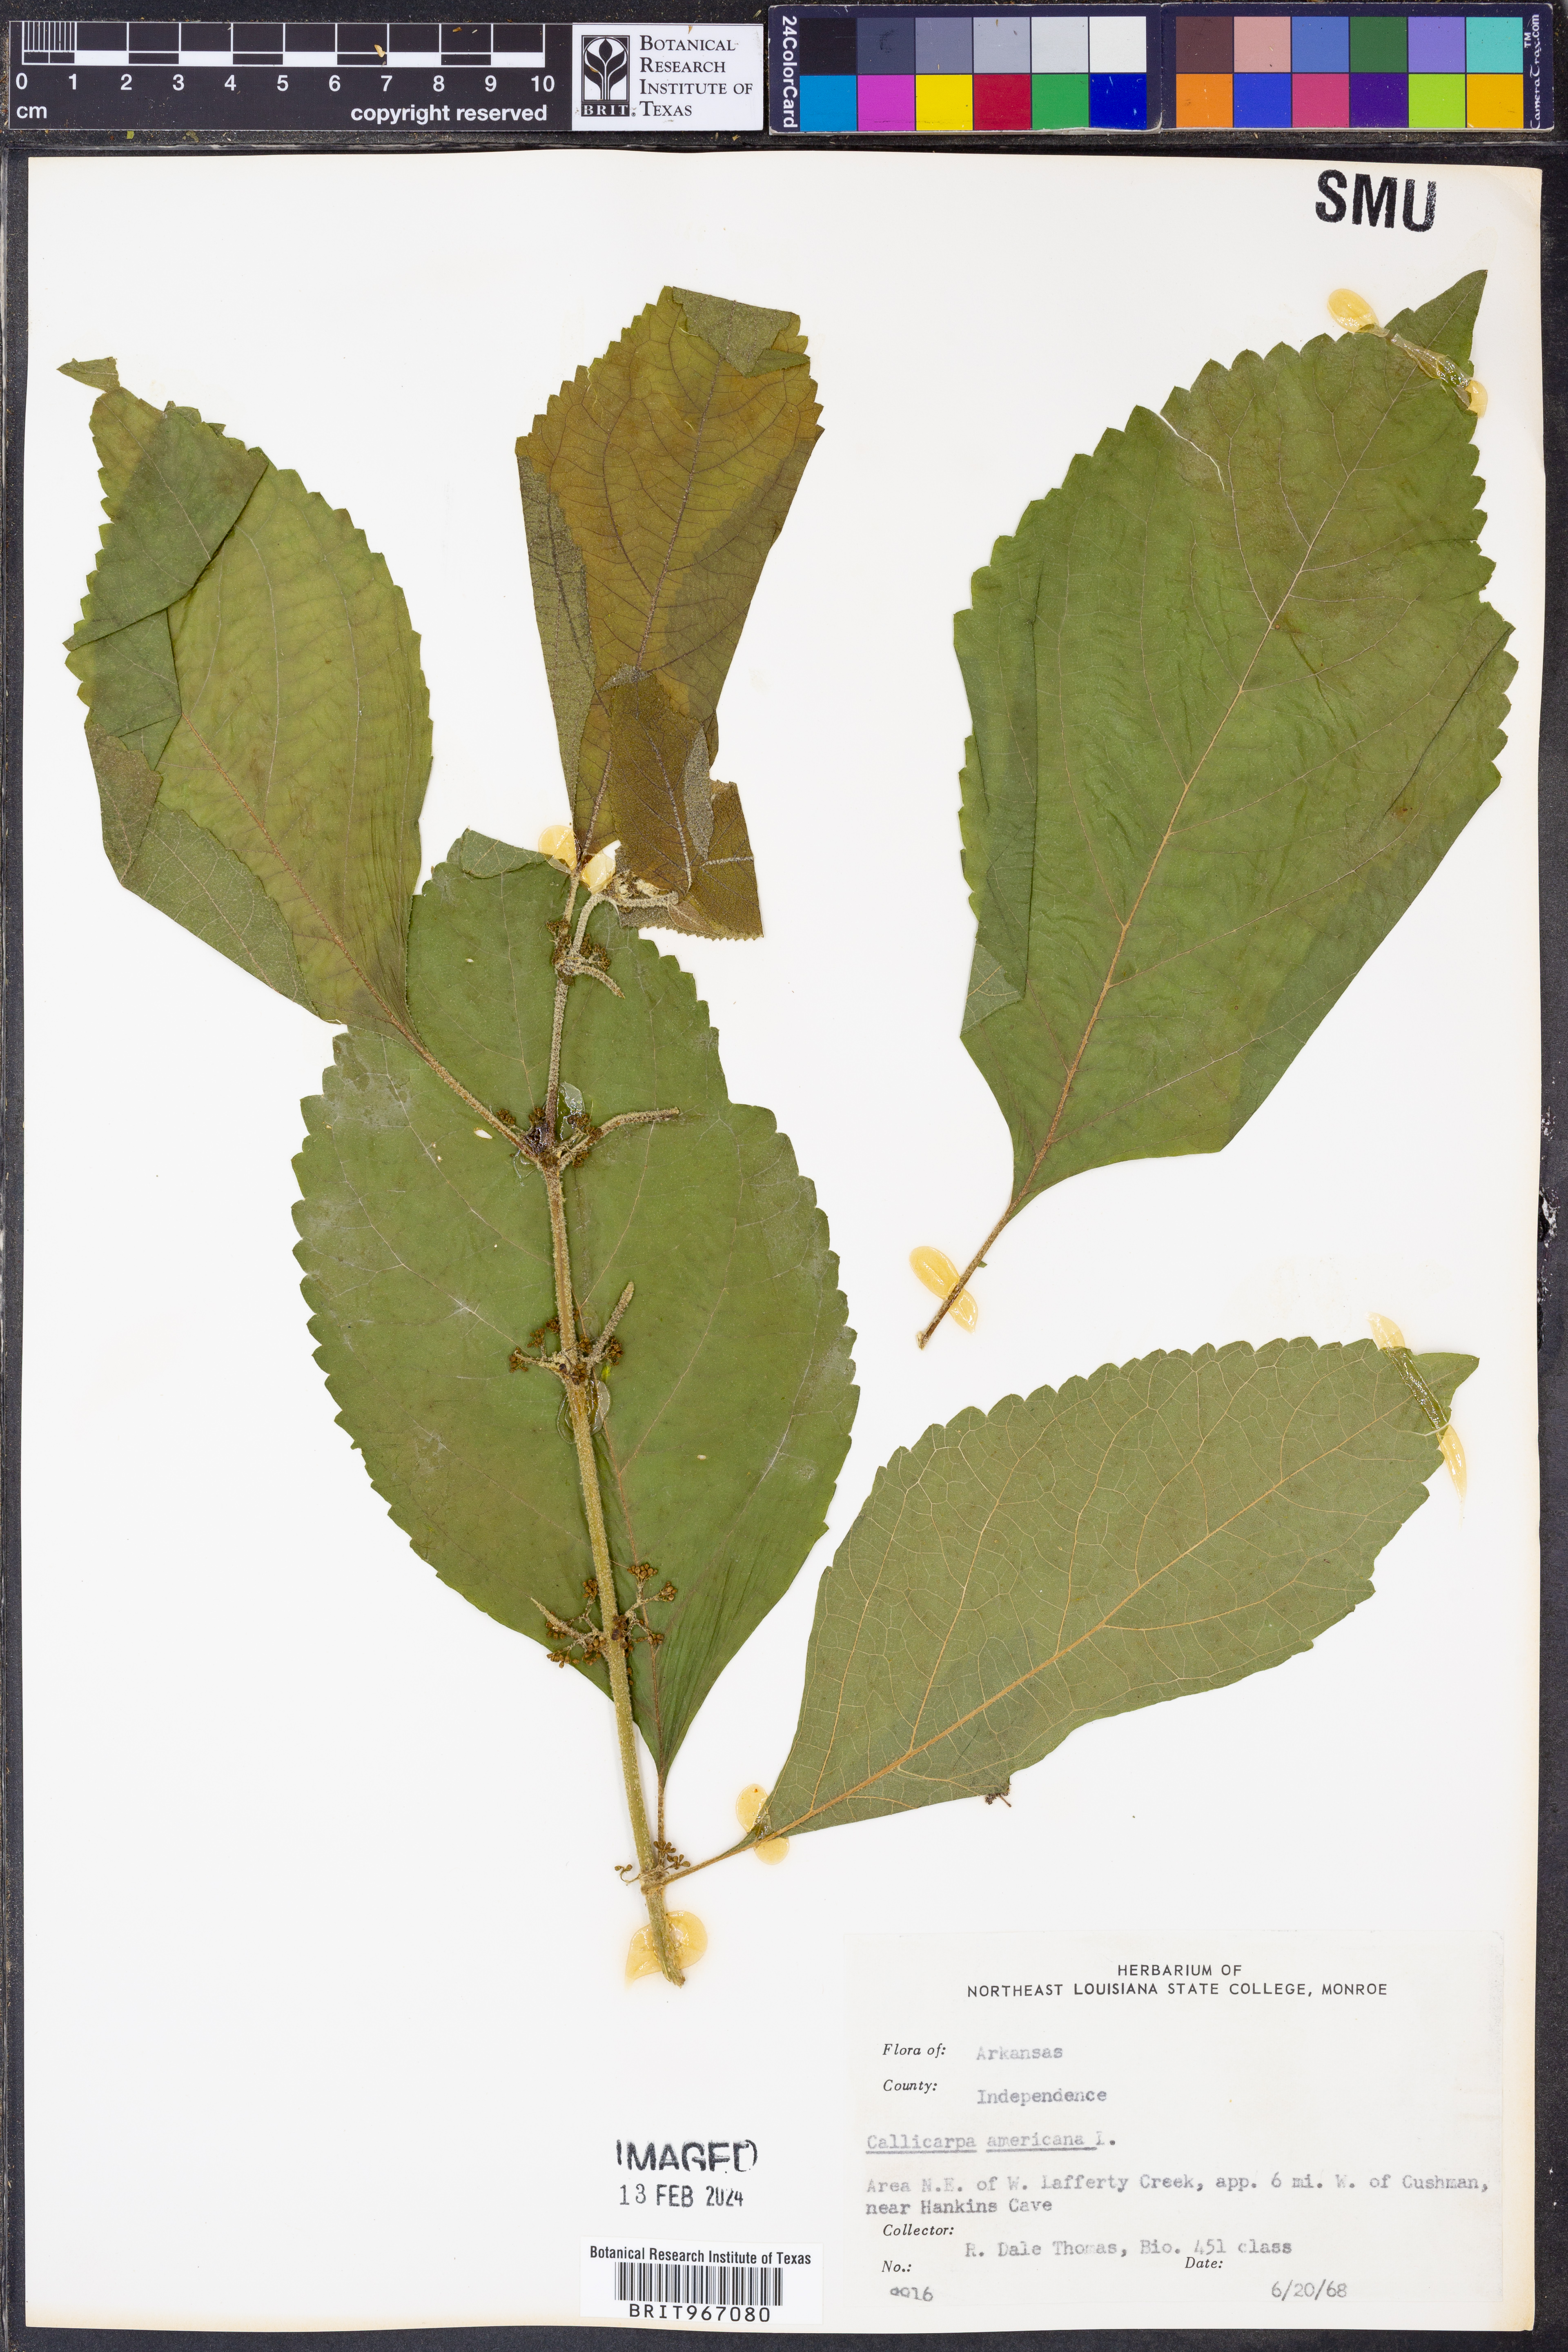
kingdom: Plantae
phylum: Tracheophyta
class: Magnoliopsida
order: Lamiales
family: Lamiaceae
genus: Callicarpa
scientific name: Callicarpa americana
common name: American beautyberry
